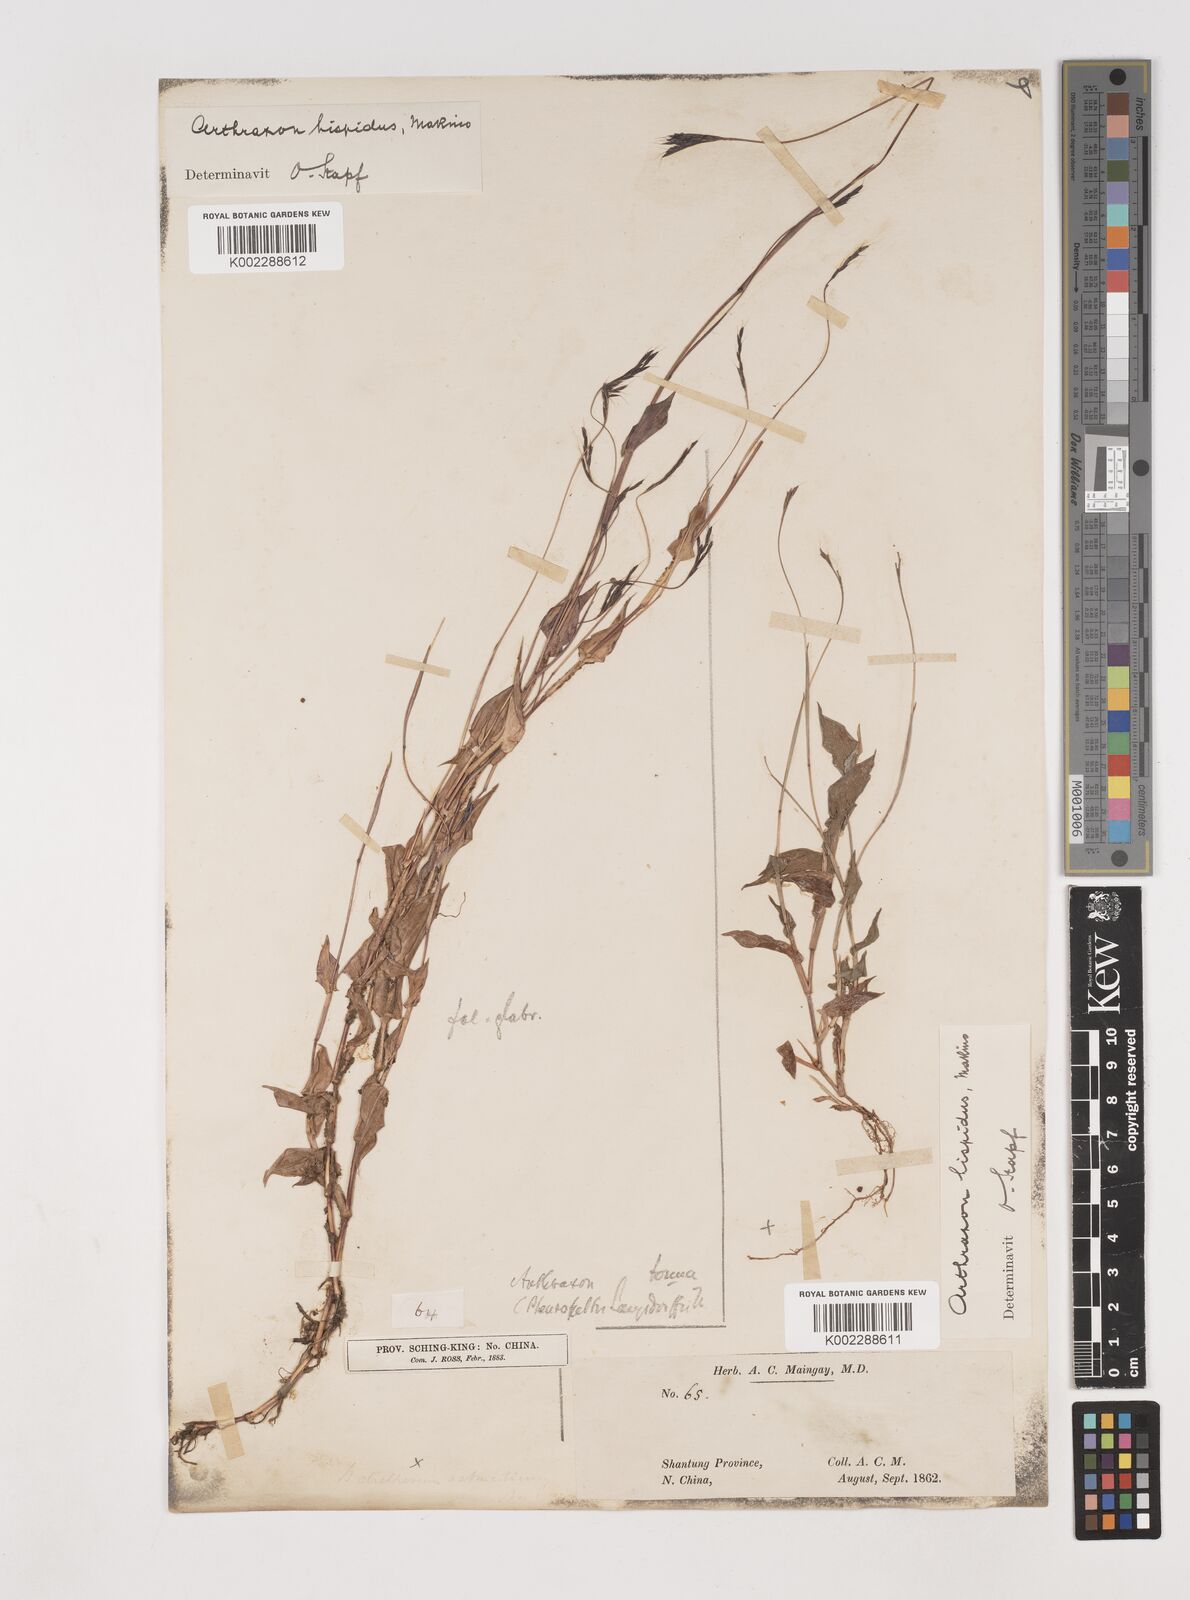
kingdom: Plantae
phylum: Tracheophyta
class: Liliopsida
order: Poales
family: Poaceae
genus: Arthraxon
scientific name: Arthraxon hispidus
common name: Small carpgrass
